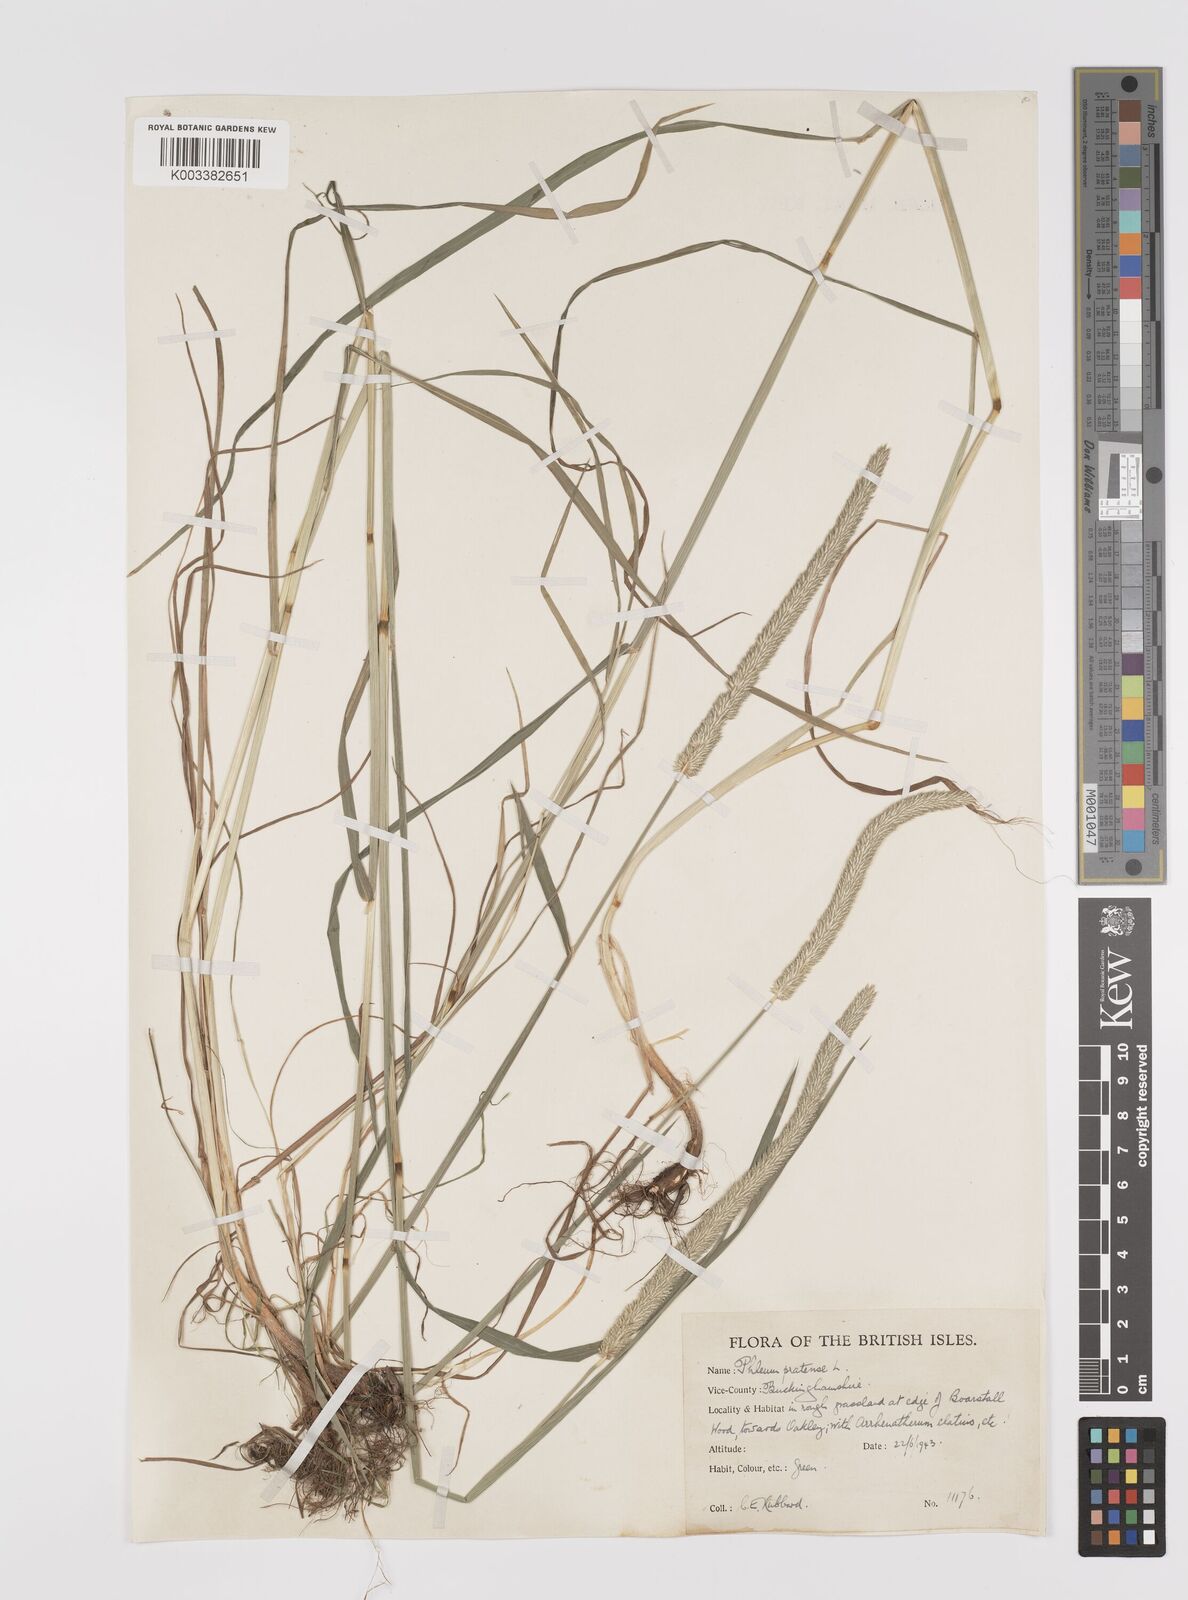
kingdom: Plantae
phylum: Tracheophyta
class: Liliopsida
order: Poales
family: Poaceae
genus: Phleum
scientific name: Phleum pratense
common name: Timothy grass
